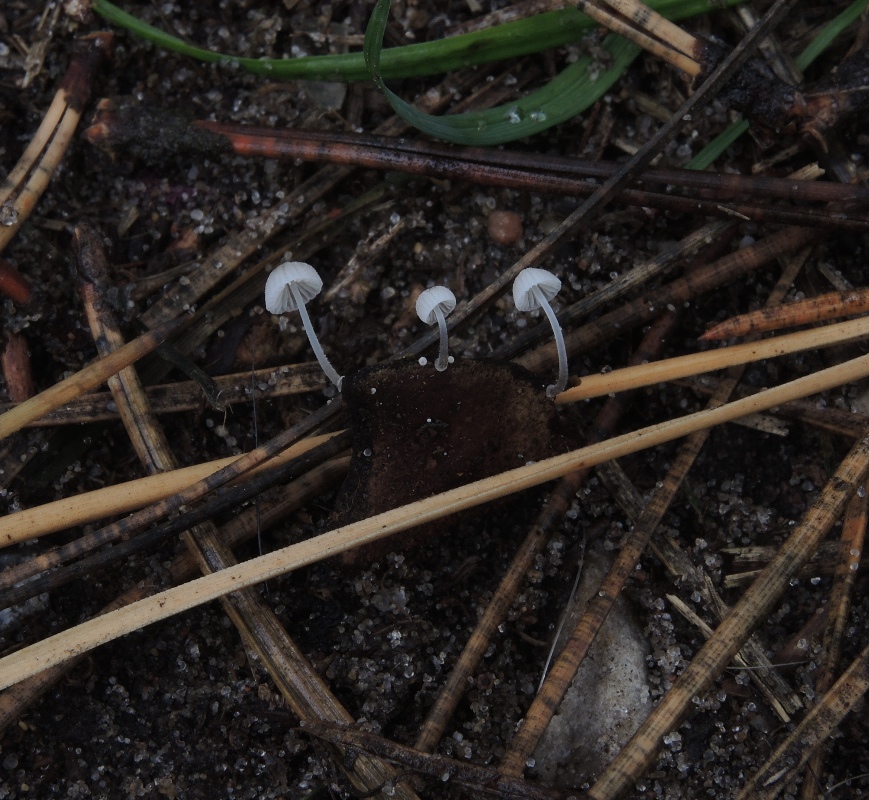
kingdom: Fungi
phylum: Basidiomycota
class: Agaricomycetes
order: Agaricales
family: Mycenaceae
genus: Mycena
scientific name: Mycena tenerrima
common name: pudret huesvamp
